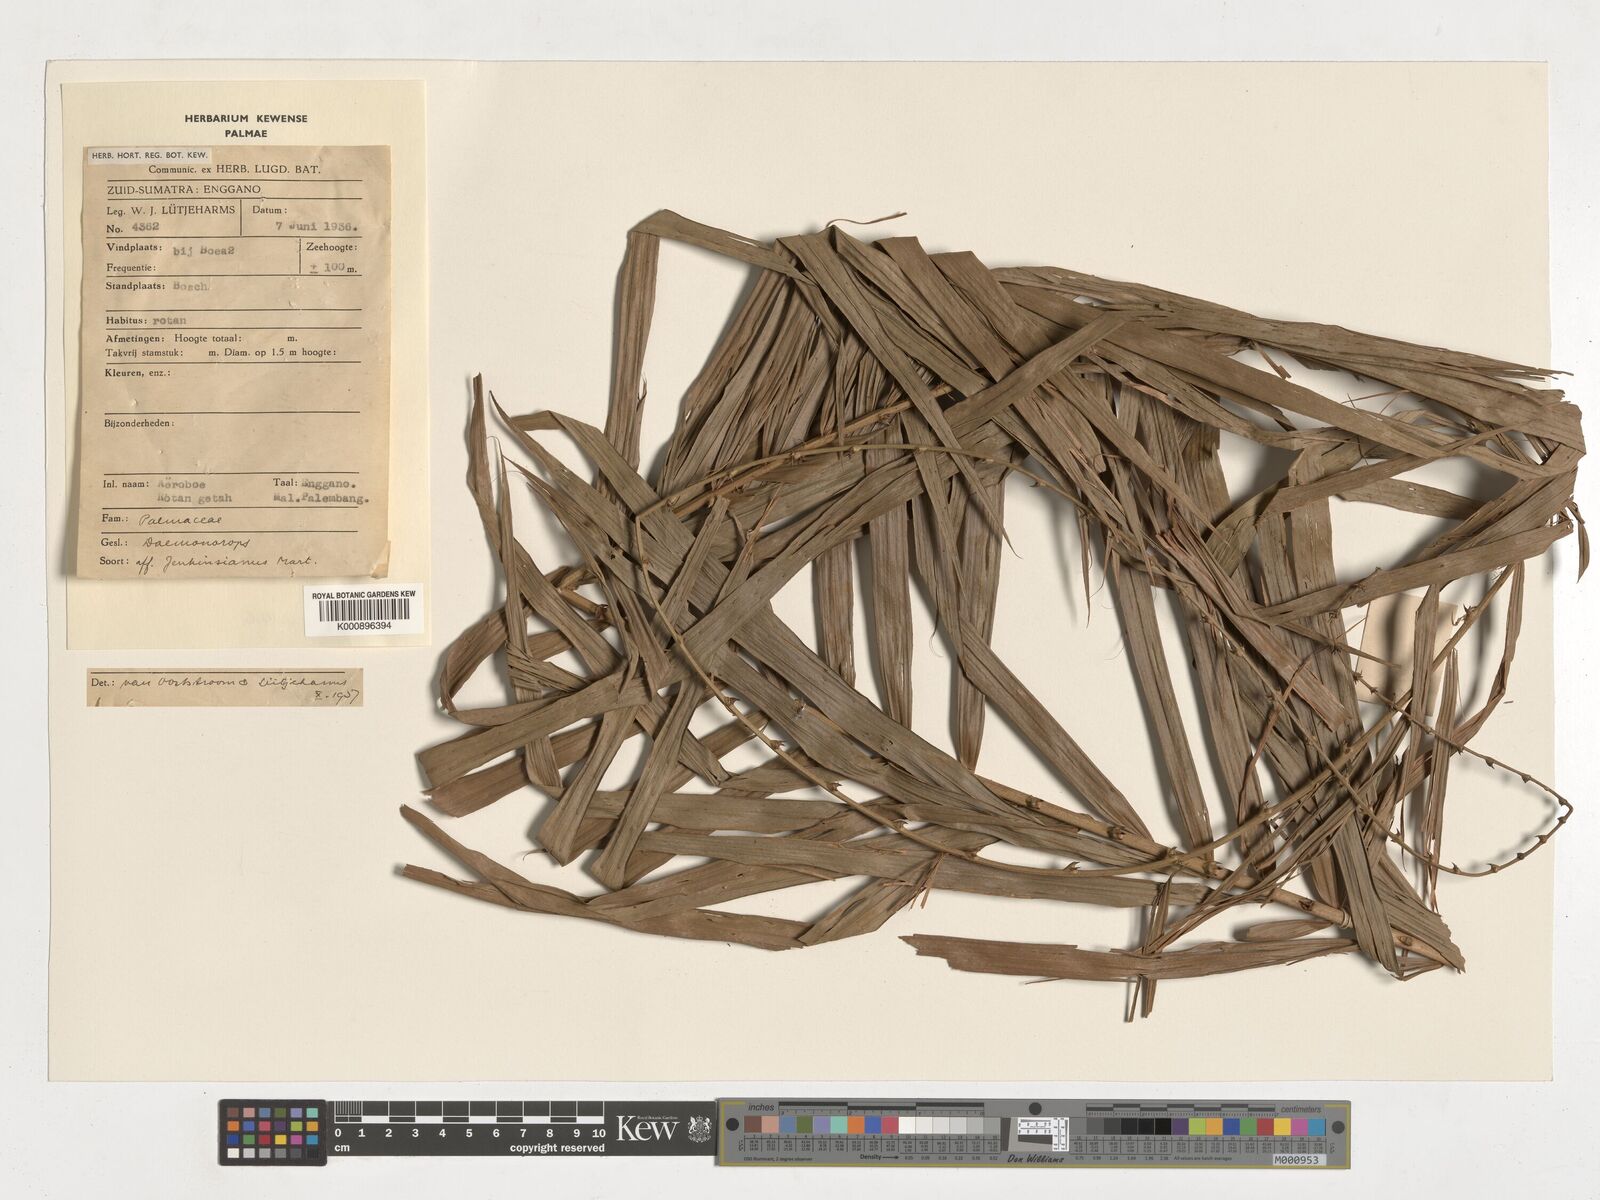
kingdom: Plantae
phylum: Tracheophyta
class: Liliopsida
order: Arecales
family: Arecaceae
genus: Calamus
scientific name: Calamus melanochaetes
